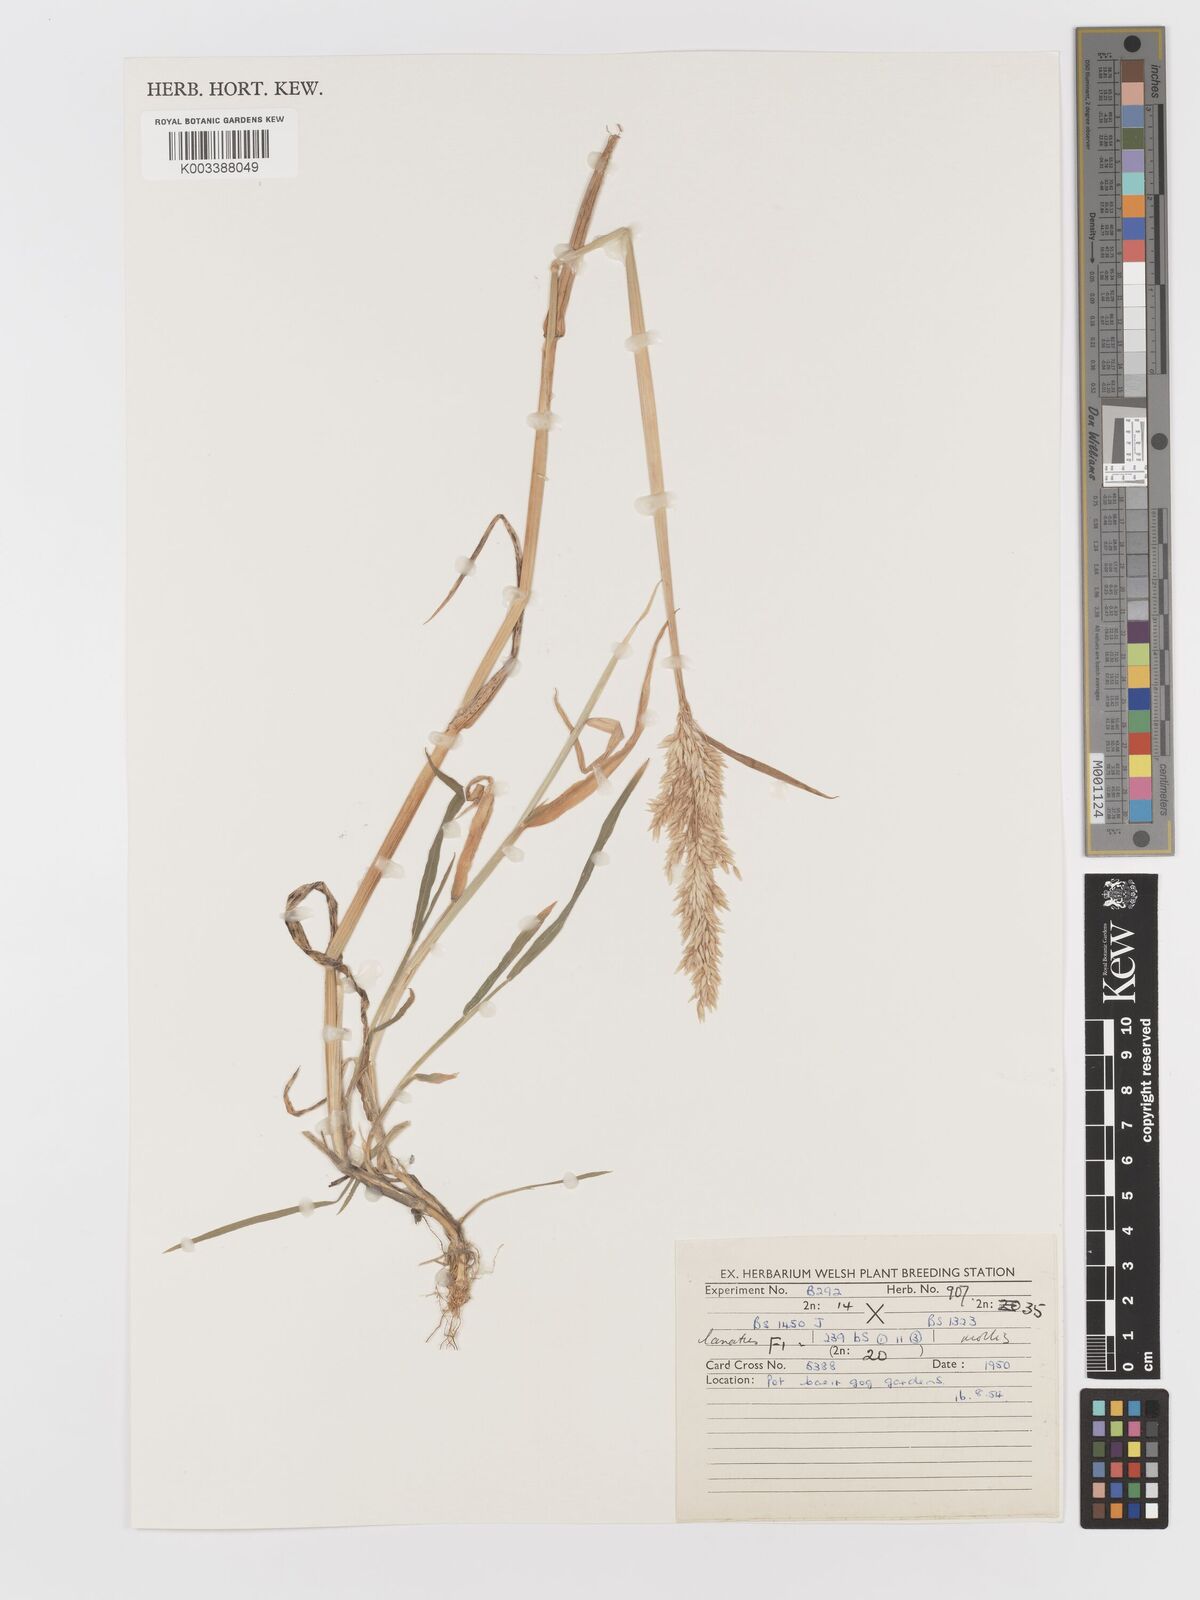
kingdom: Plantae
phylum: Tracheophyta
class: Liliopsida
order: Poales
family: Poaceae
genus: Holcus
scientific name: Holcus lanatus
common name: Yorkshire-fog
